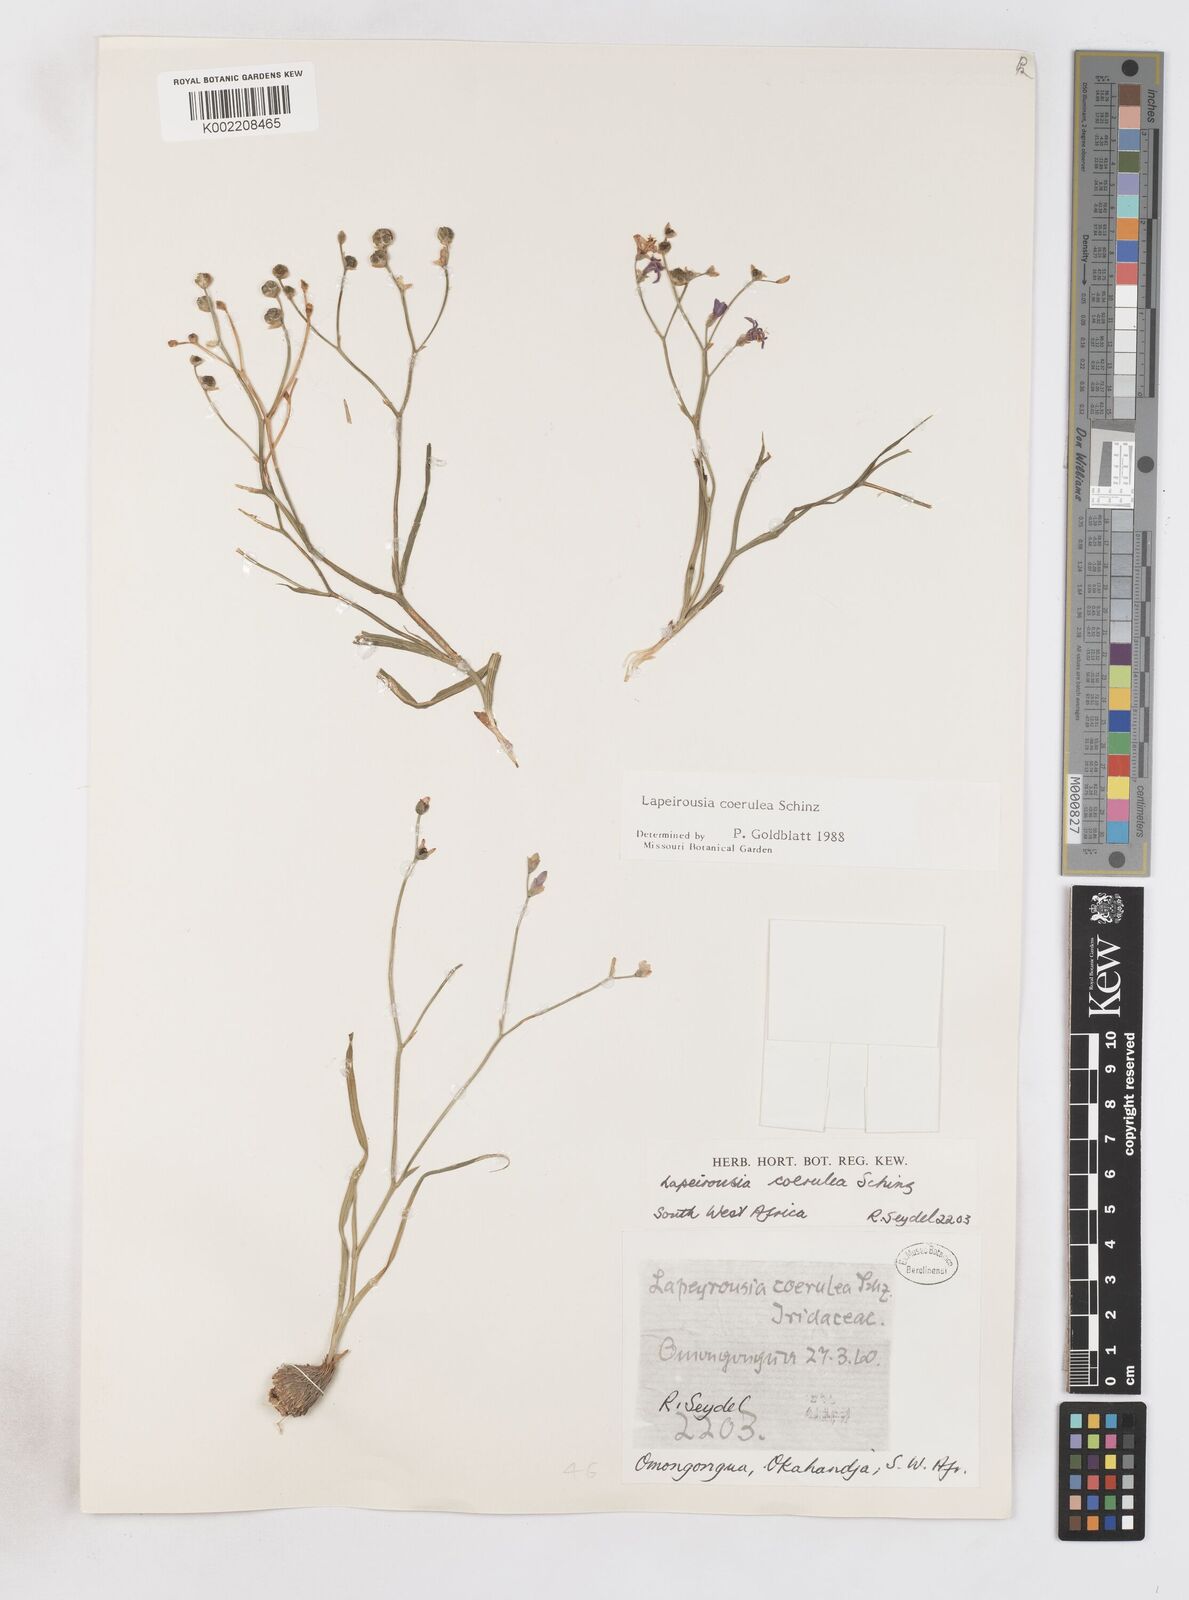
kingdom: Plantae
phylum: Tracheophyta
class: Liliopsida
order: Asparagales
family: Iridaceae
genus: Afrosolen
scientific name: Afrosolen coeruleus
